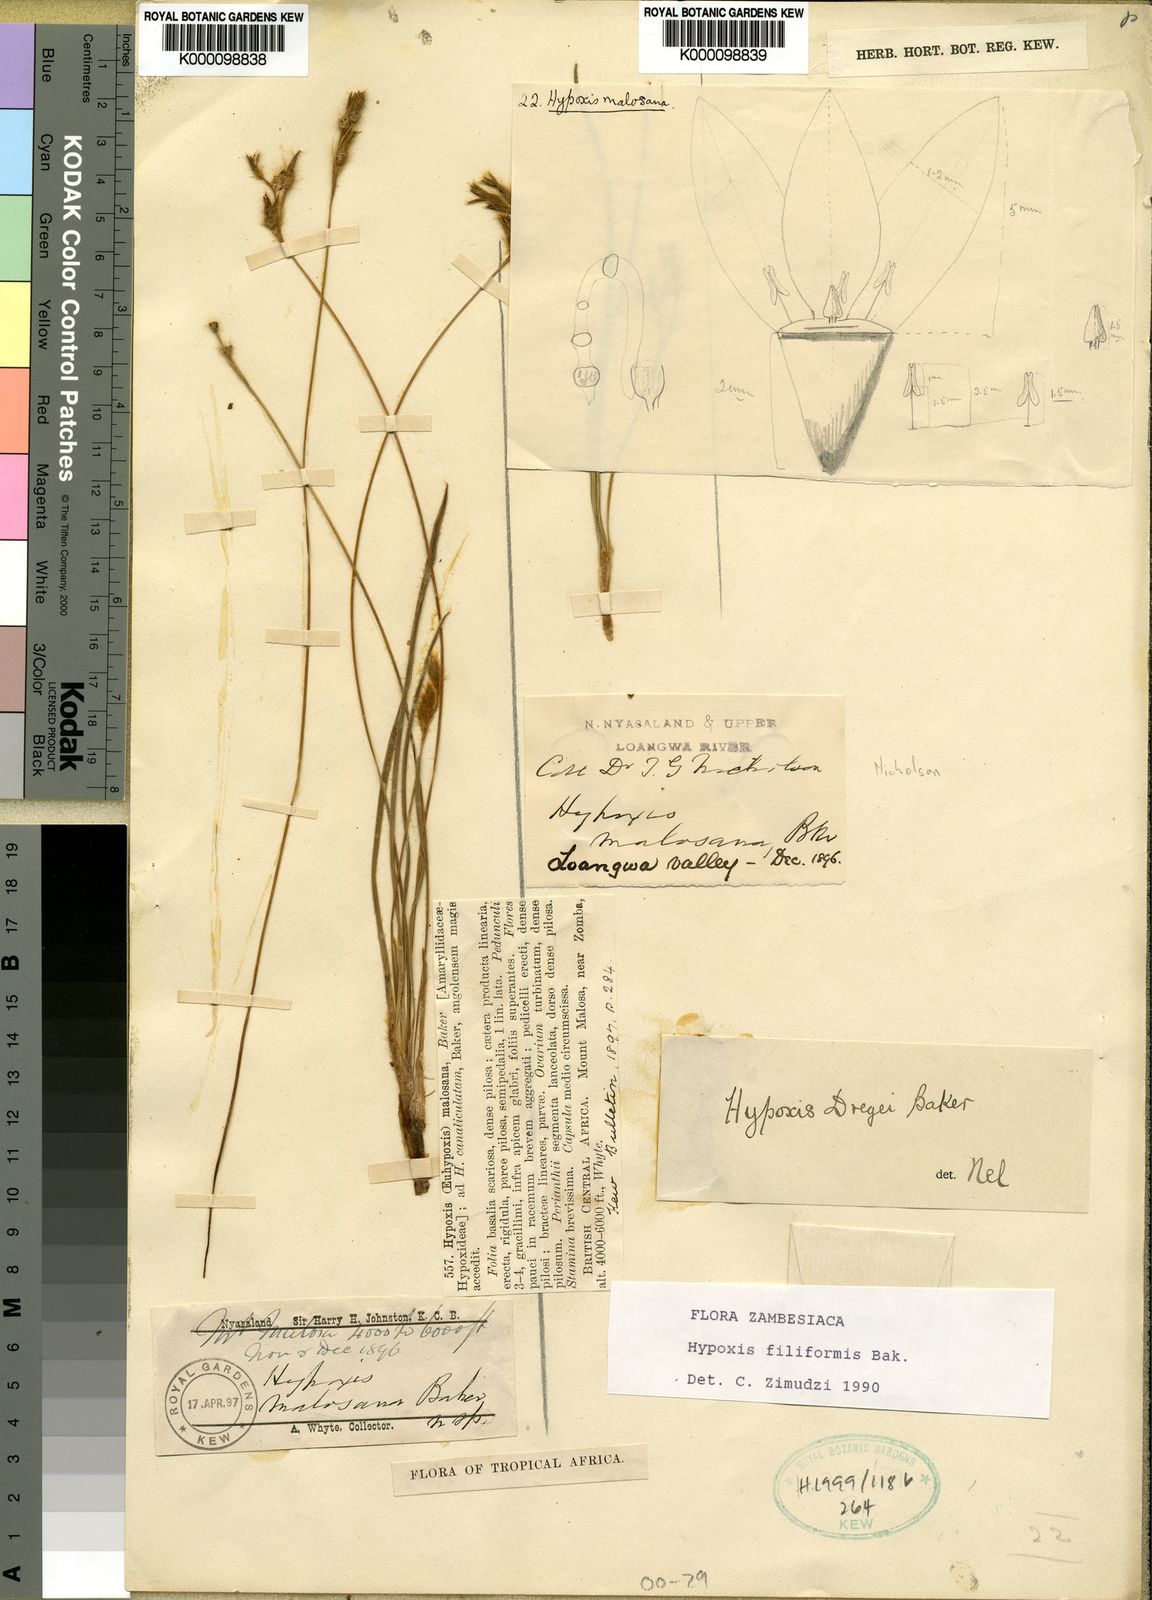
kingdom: Plantae
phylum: Tracheophyta
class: Liliopsida
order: Asparagales
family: Hypoxidaceae
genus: Hypoxis
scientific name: Hypoxis filiformis
